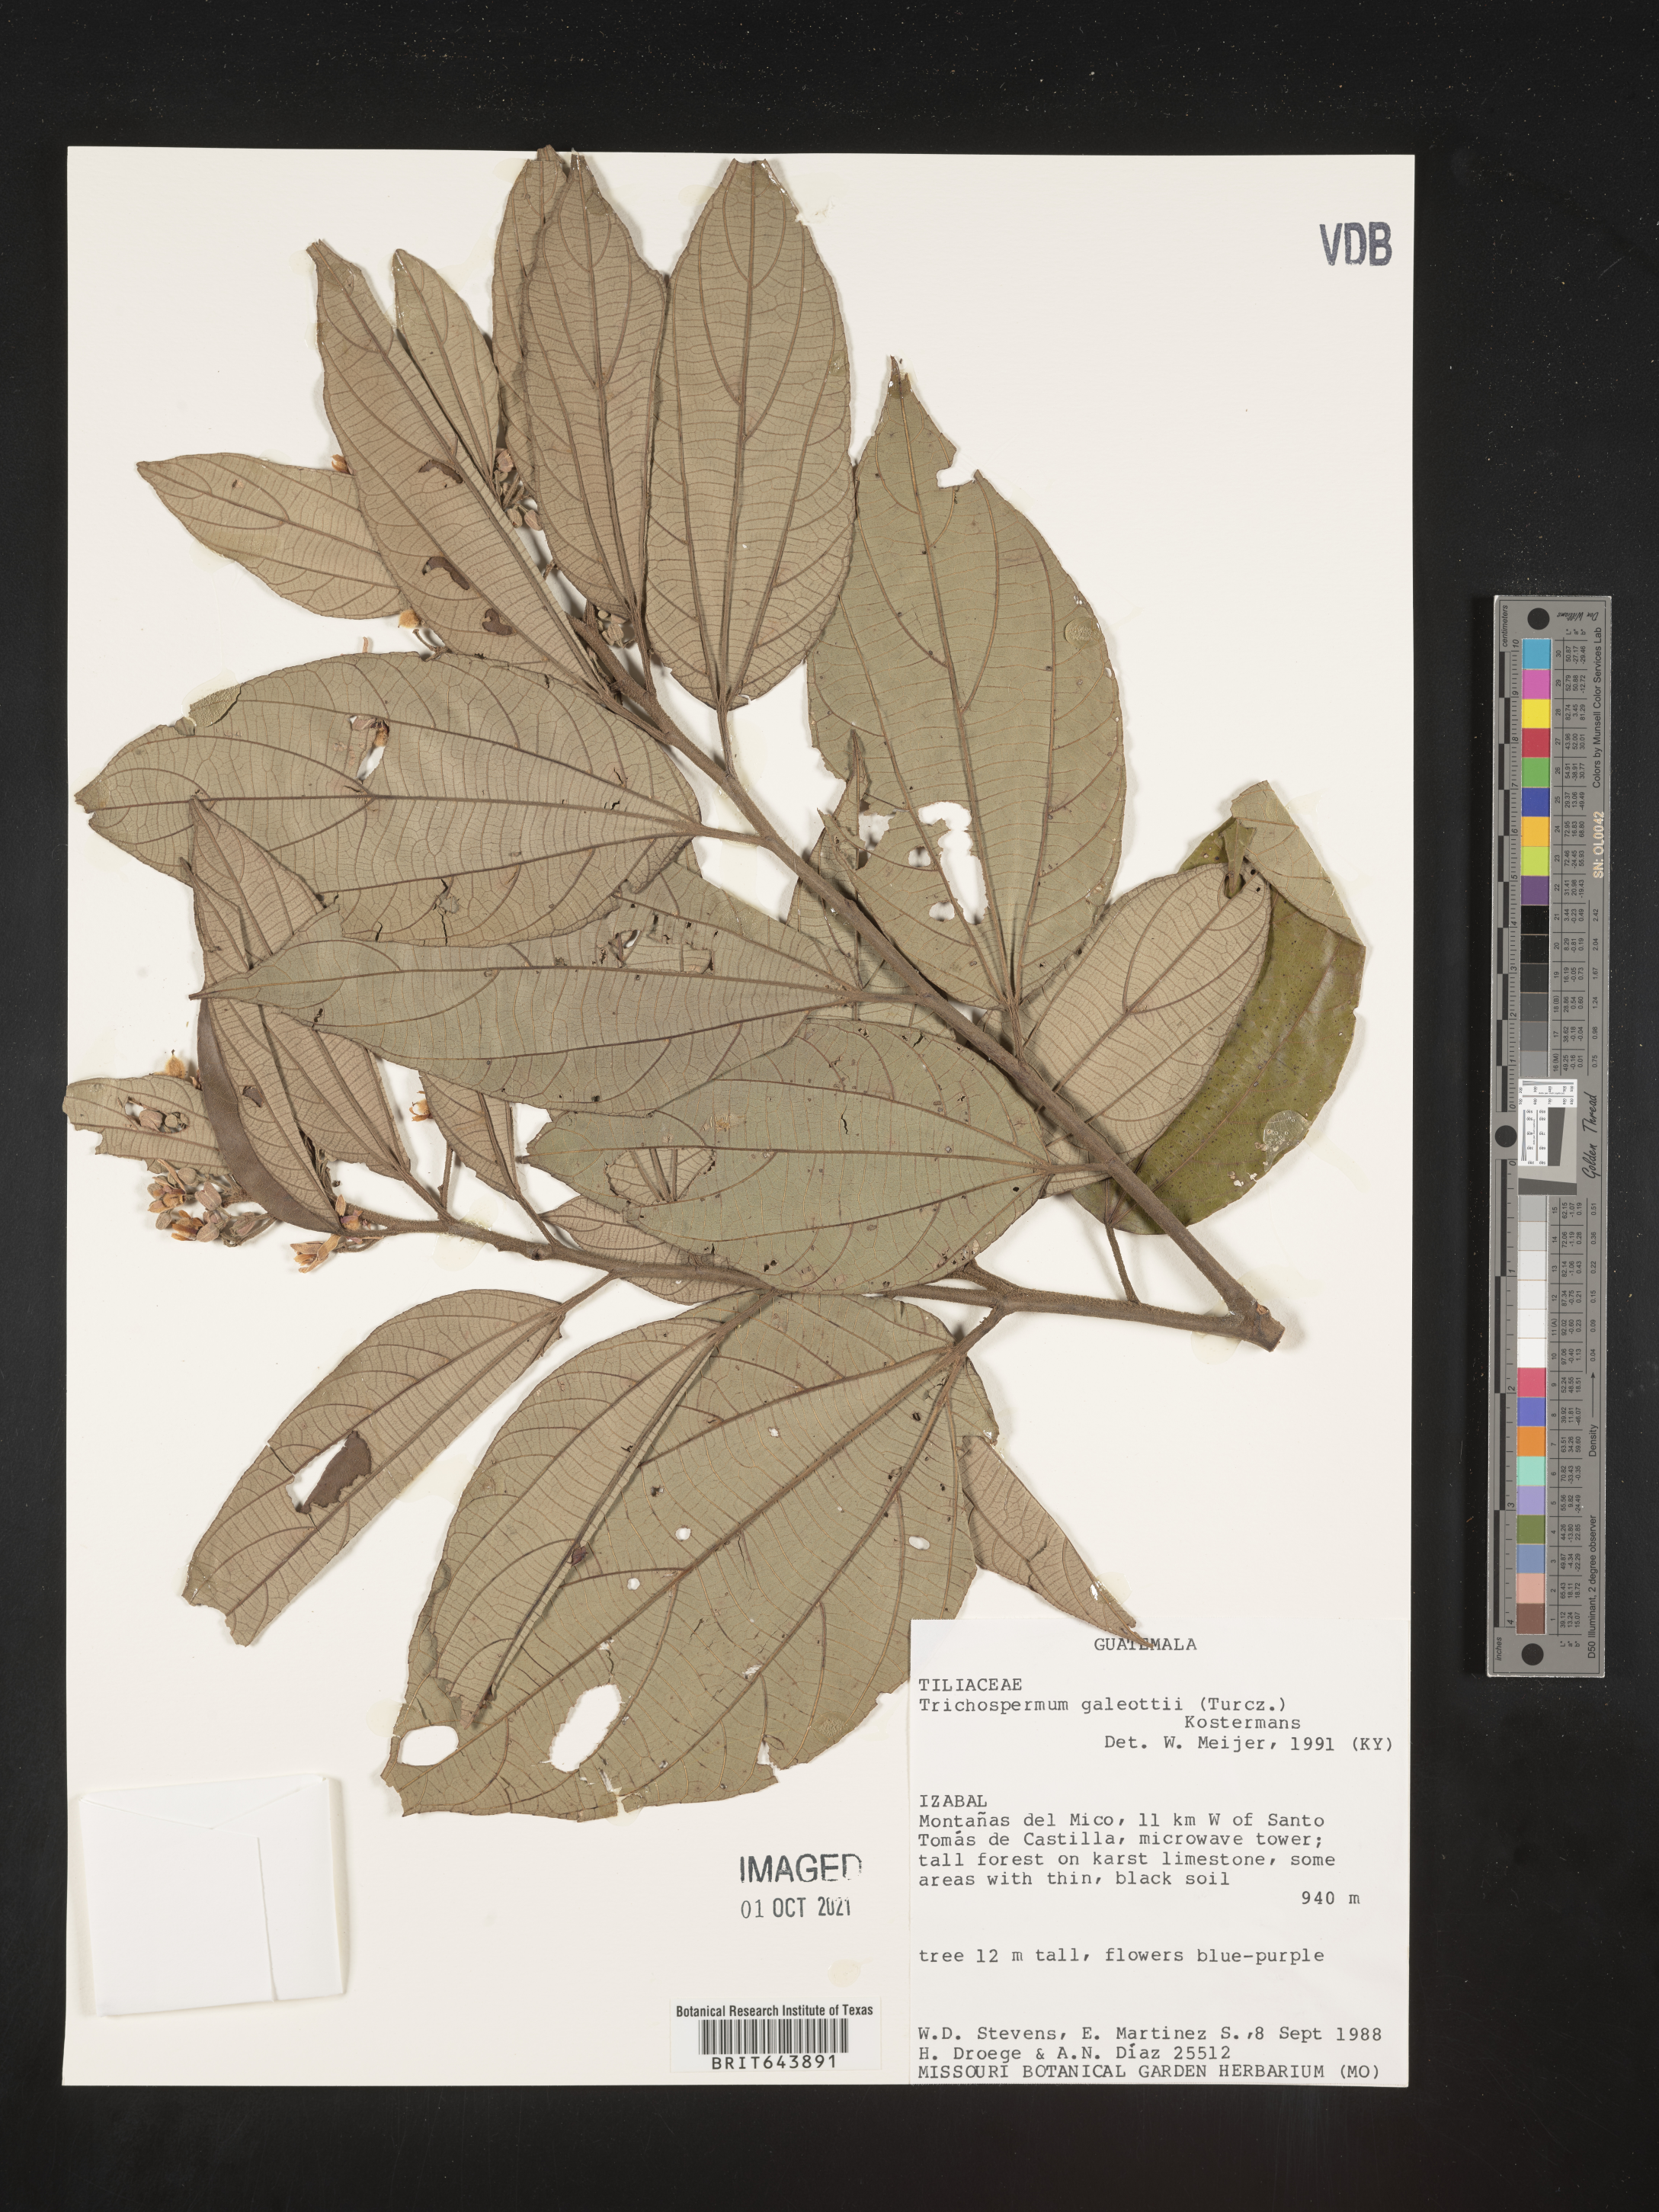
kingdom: Plantae
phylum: Tracheophyta
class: Magnoliopsida
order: Malvales
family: Malvaceae
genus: Trichospermum
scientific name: Trichospermum
